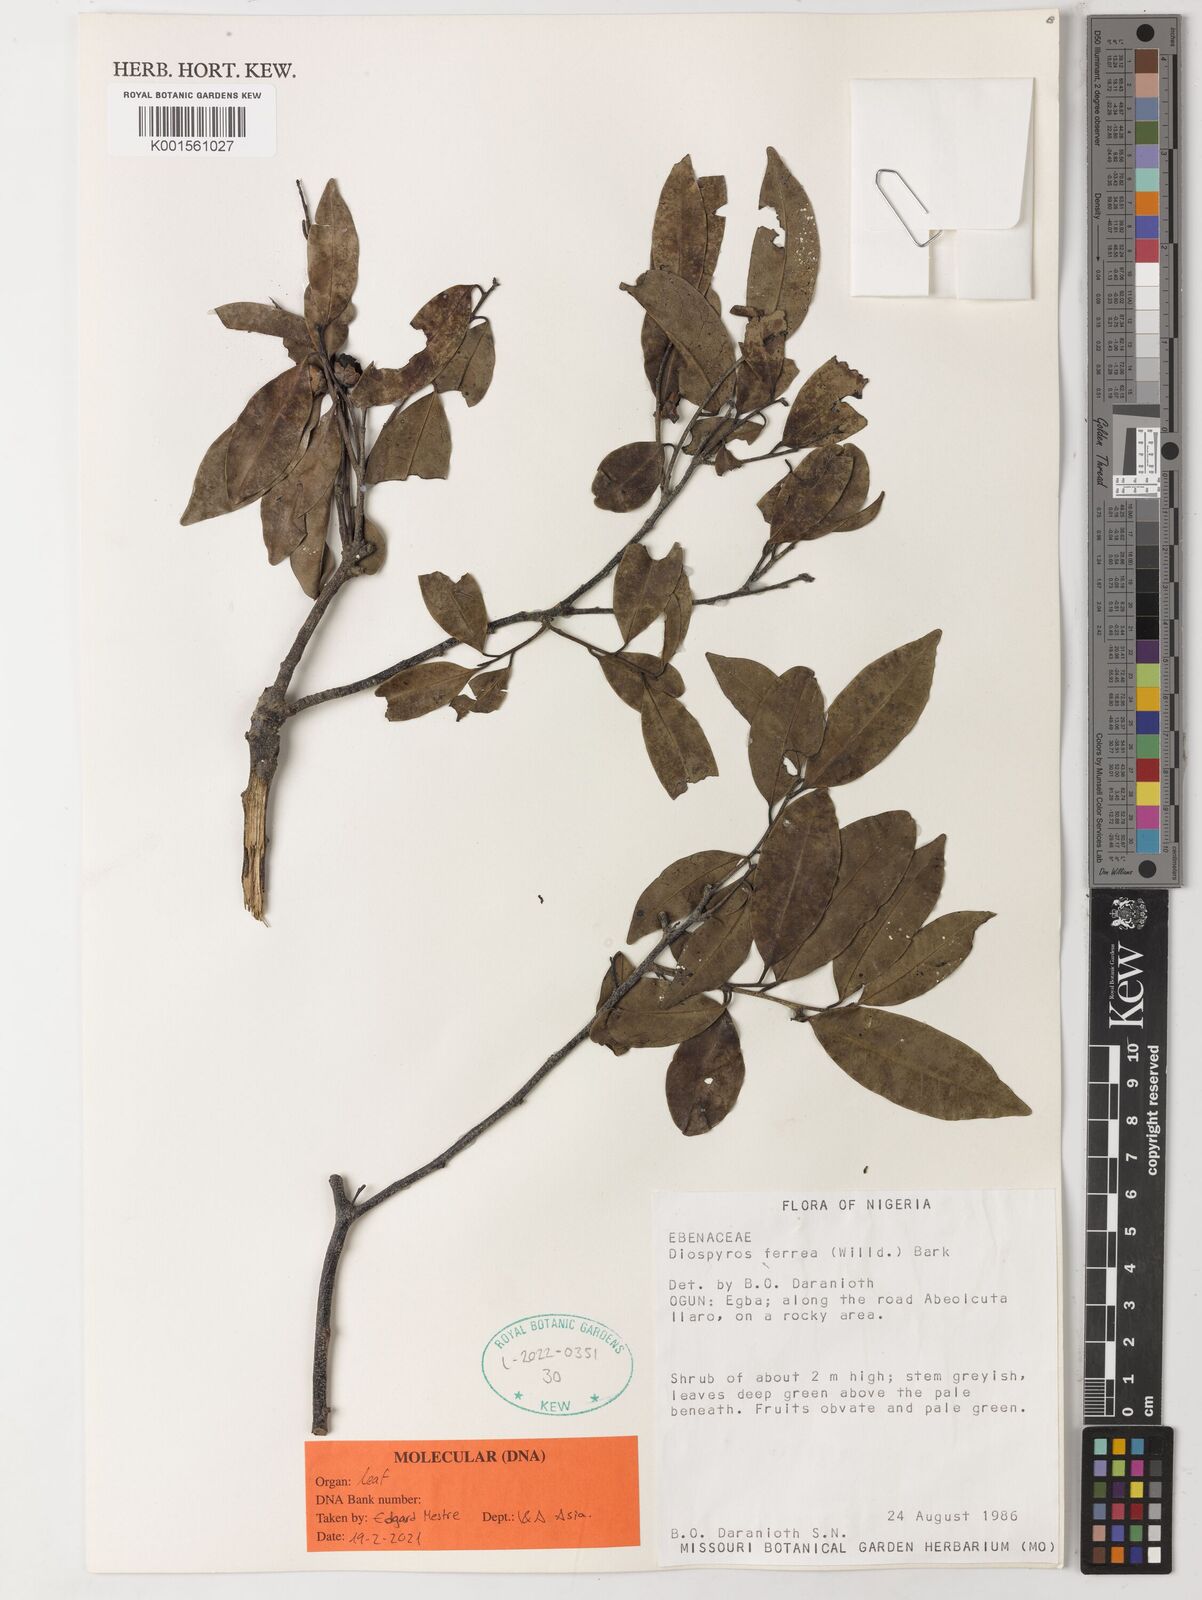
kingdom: Plantae
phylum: Tracheophyta
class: Magnoliopsida
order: Ericales
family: Ebenaceae
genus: Diospyros
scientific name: Diospyros ferrea
